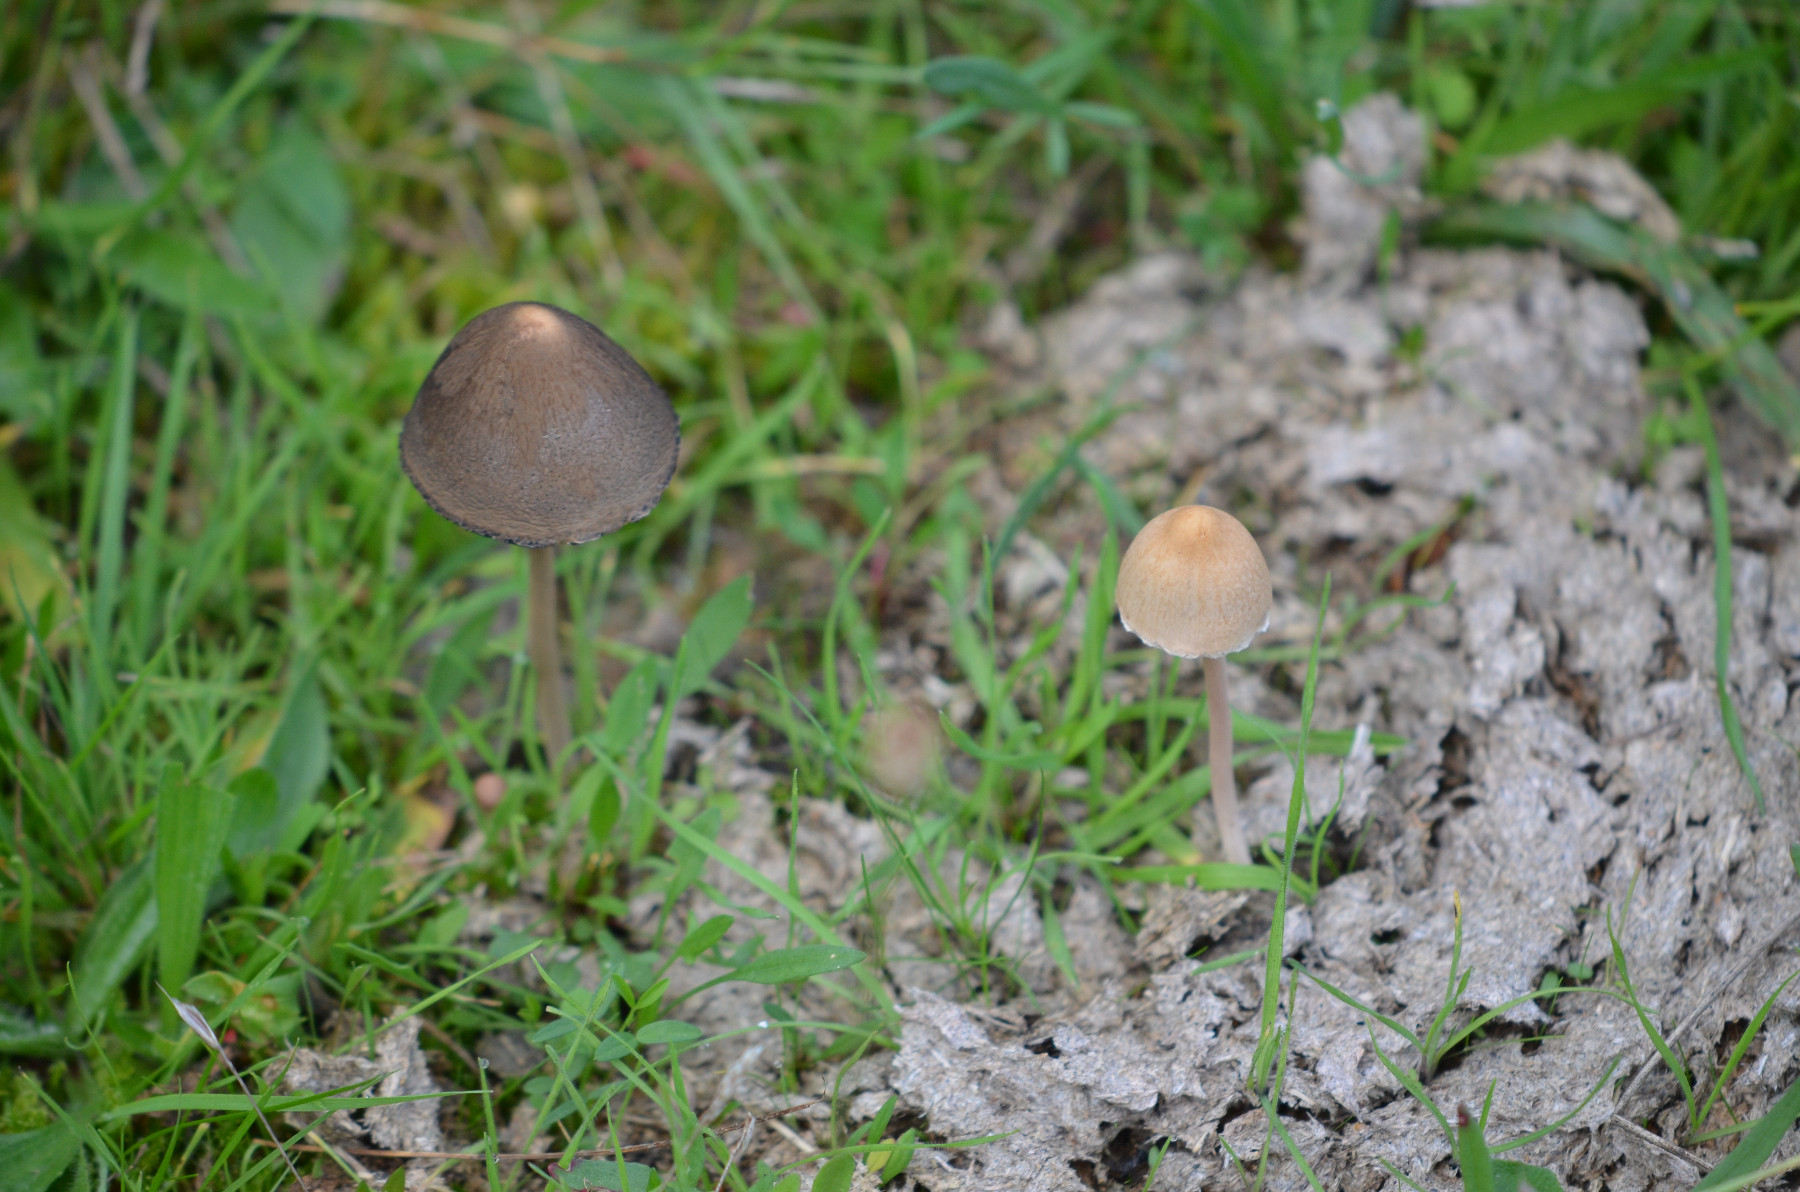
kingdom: Fungi
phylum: Basidiomycota
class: Agaricomycetes
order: Agaricales
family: Bolbitiaceae
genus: Panaeolus
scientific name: Panaeolus papilionaceus
